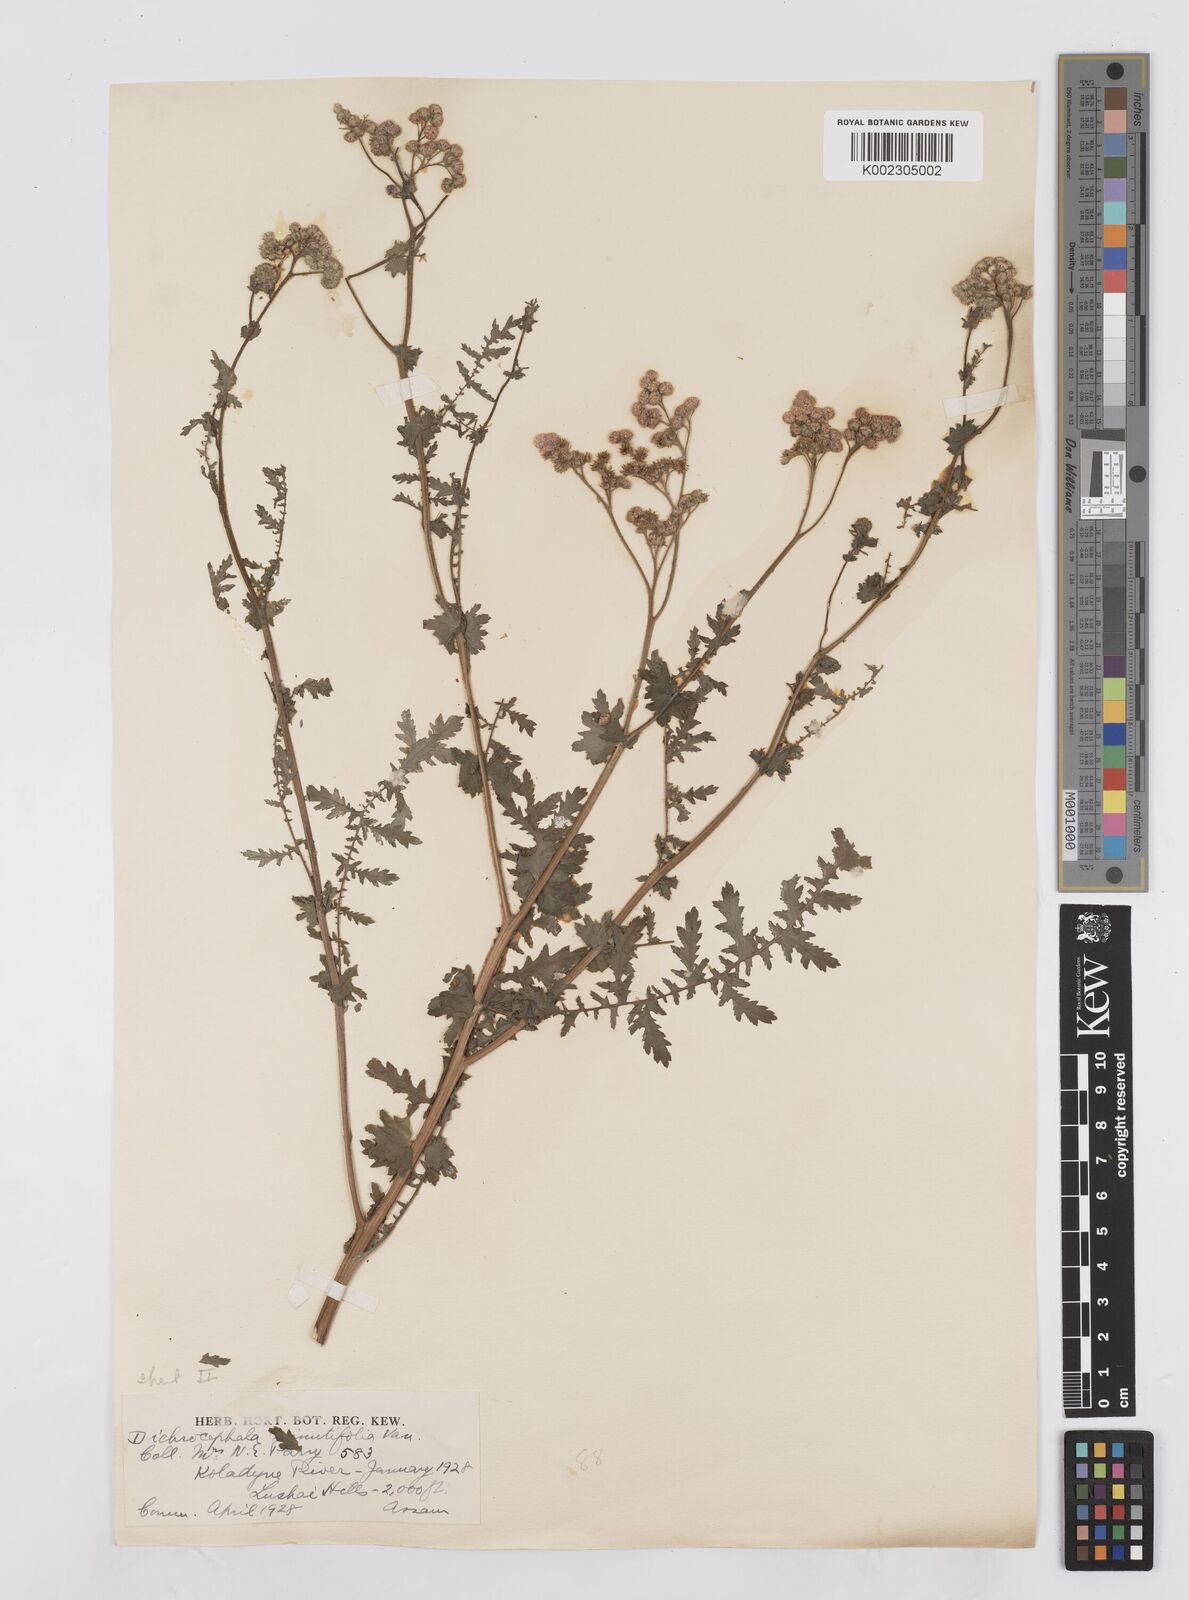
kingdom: Plantae
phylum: Tracheophyta
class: Magnoliopsida
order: Asterales
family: Asteraceae
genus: Cyathocline
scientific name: Cyathocline purpurea
